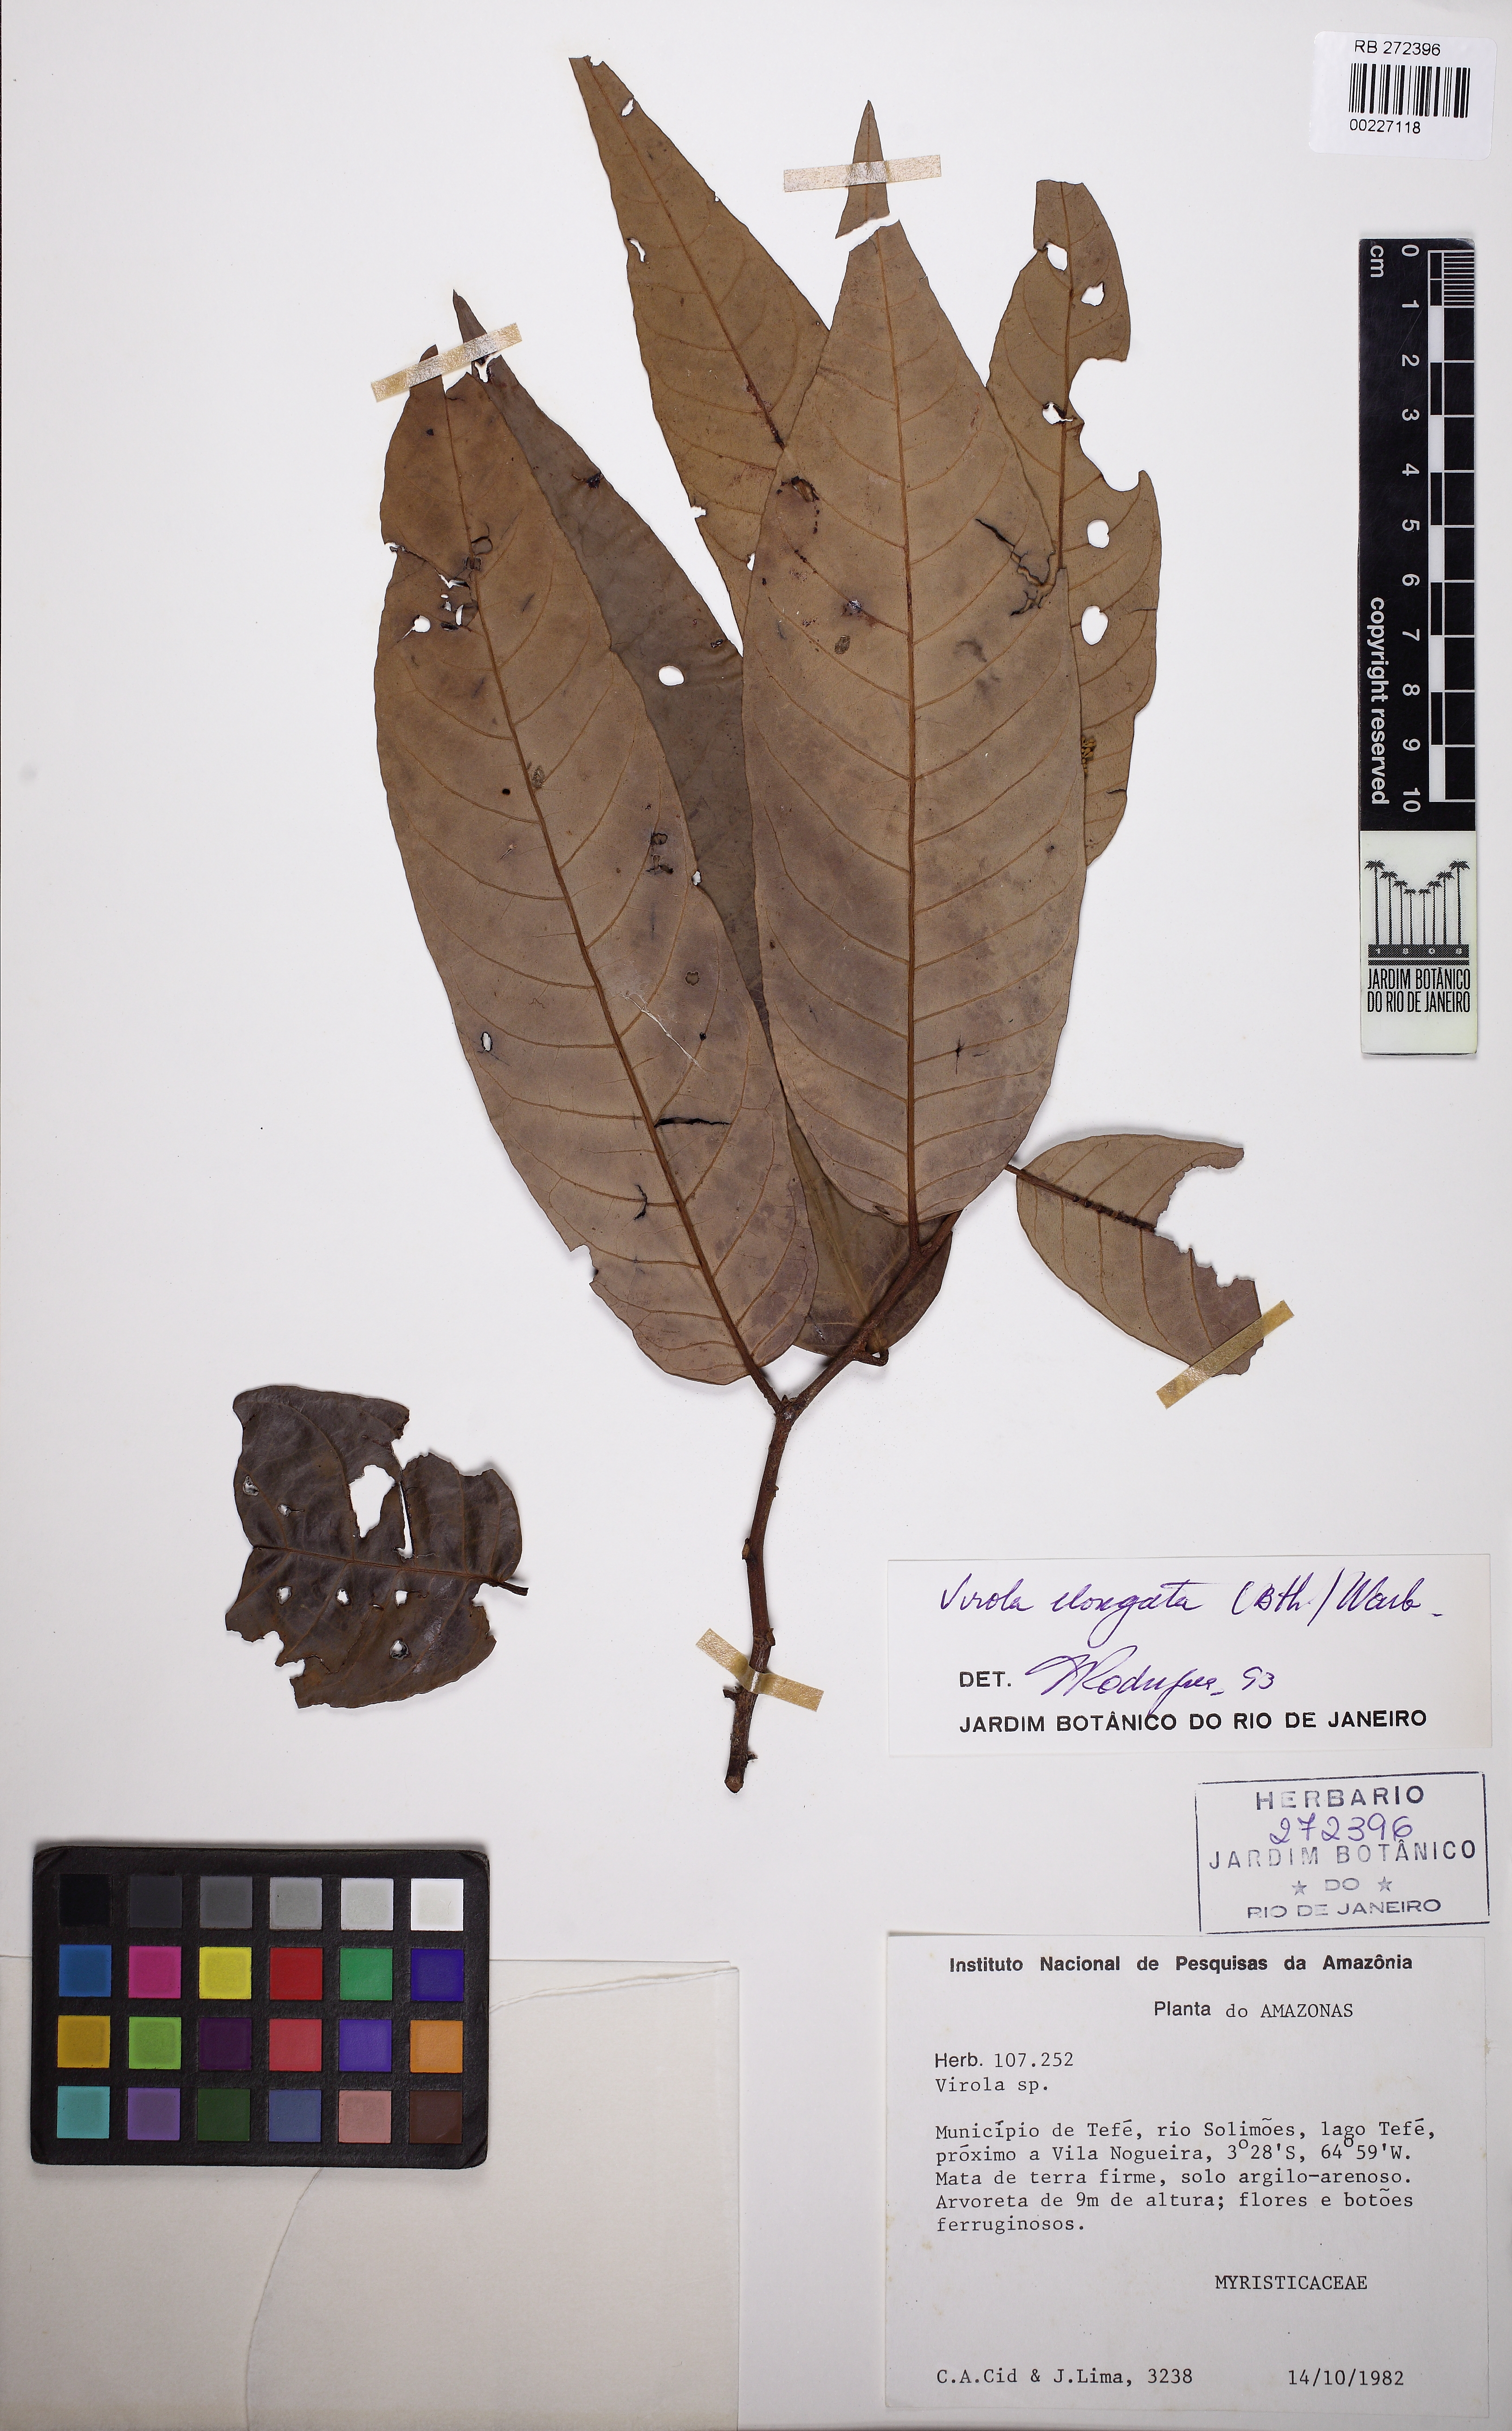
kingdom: Plantae
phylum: Tracheophyta
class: Magnoliopsida
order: Magnoliales
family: Myristicaceae
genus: Virola
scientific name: Virola elongata
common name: Sacred virola
